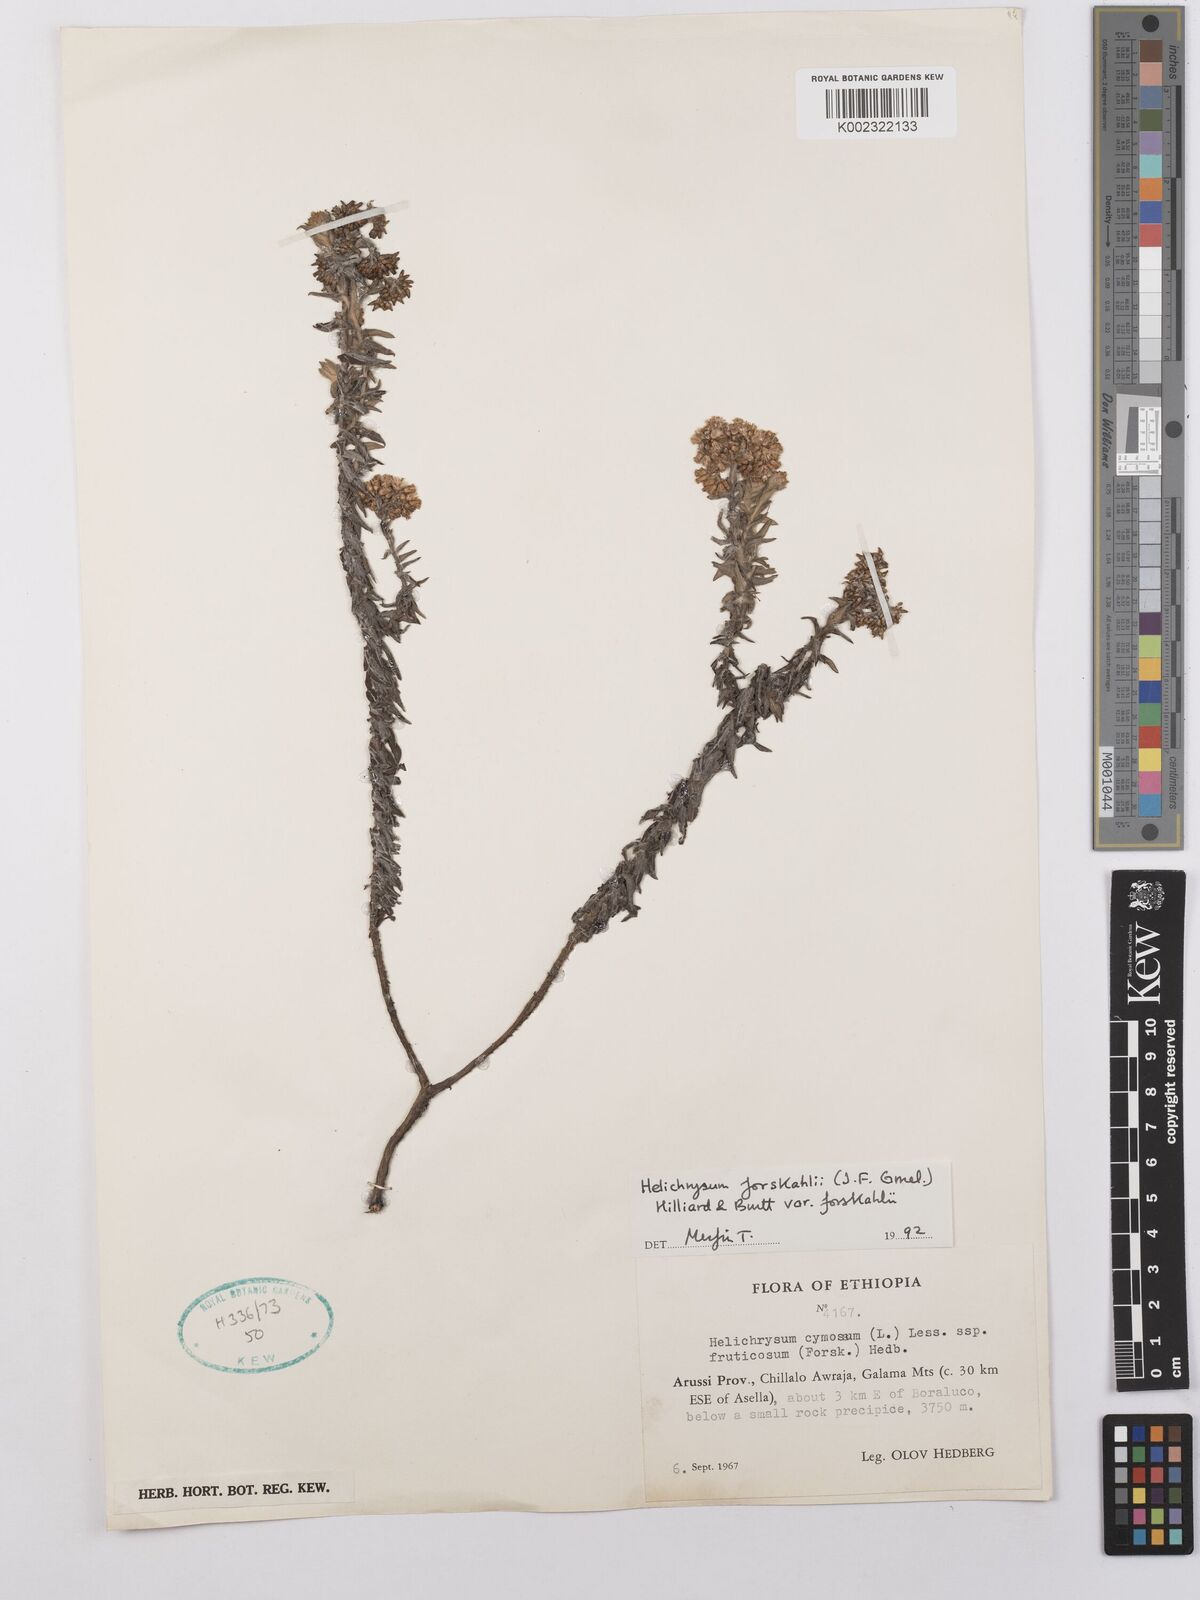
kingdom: Plantae
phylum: Tracheophyta
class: Magnoliopsida
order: Asterales
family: Asteraceae
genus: Helichrysum
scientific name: Helichrysum forskahlii
